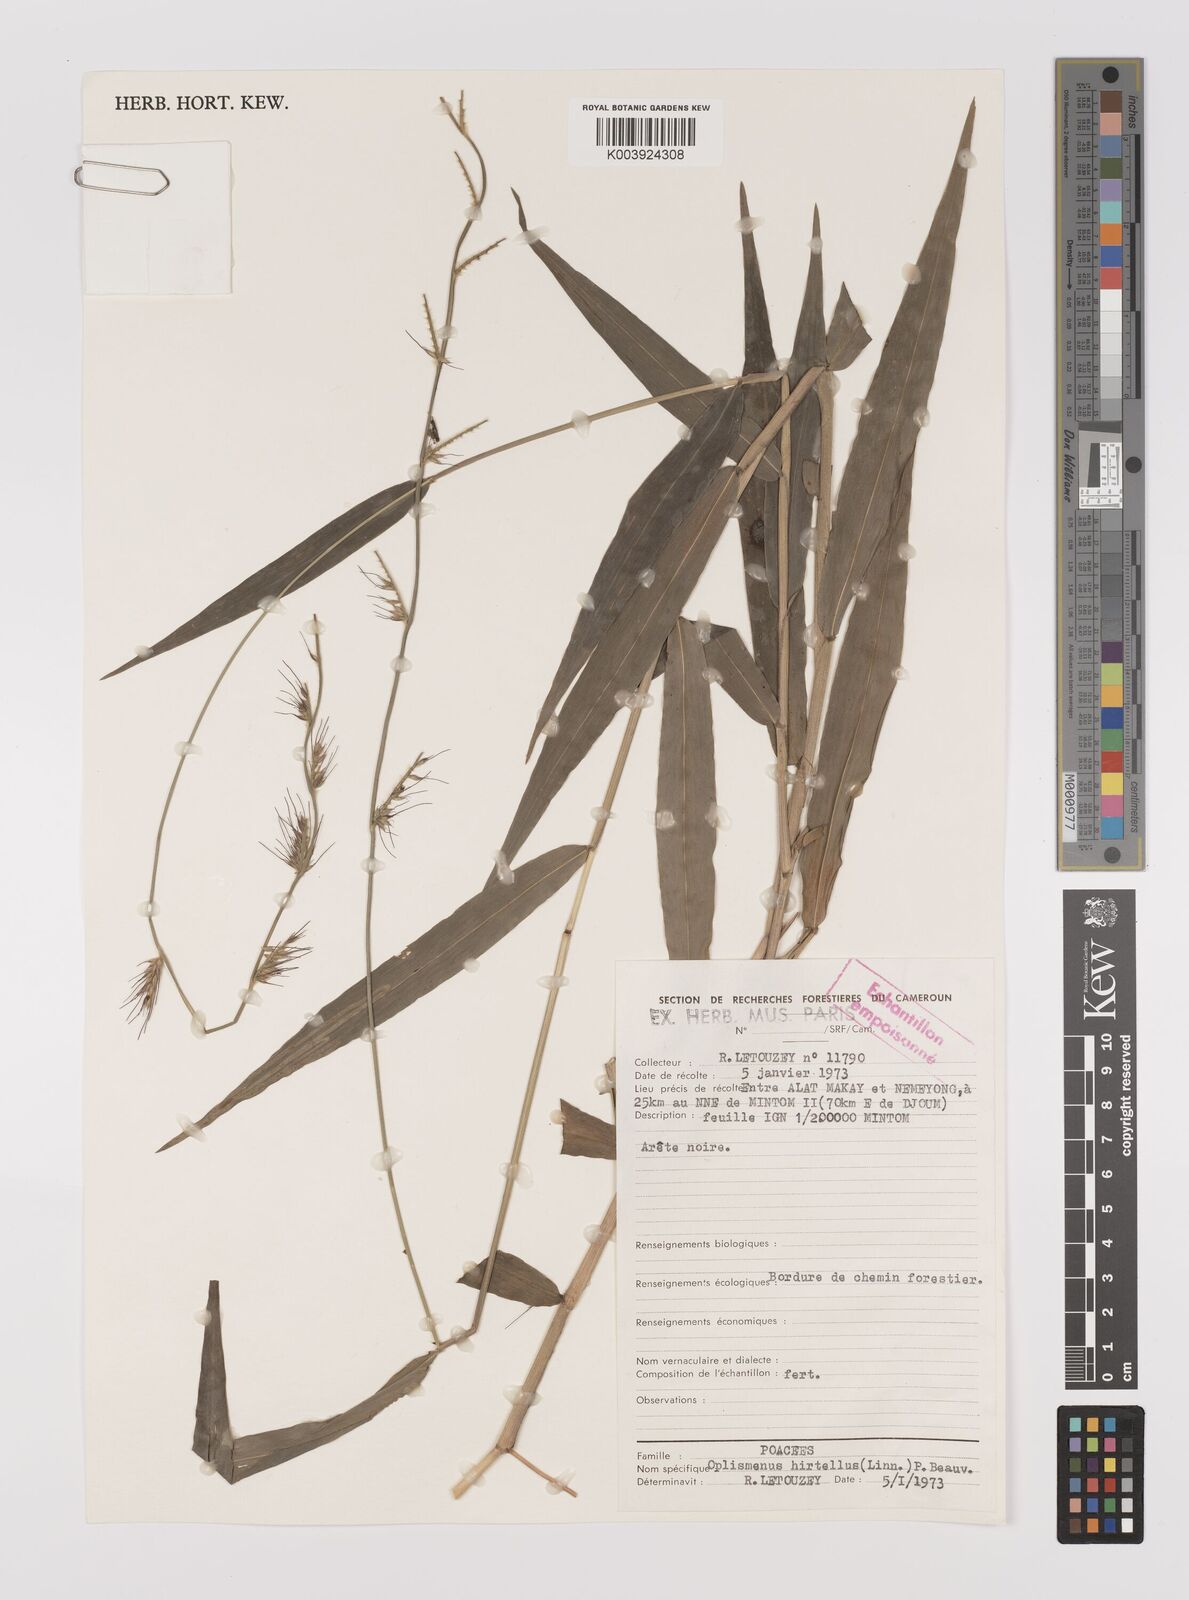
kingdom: Plantae
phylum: Tracheophyta
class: Liliopsida
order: Poales
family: Poaceae
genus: Oplismenus
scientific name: Oplismenus hirtellus
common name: Basketgrass
